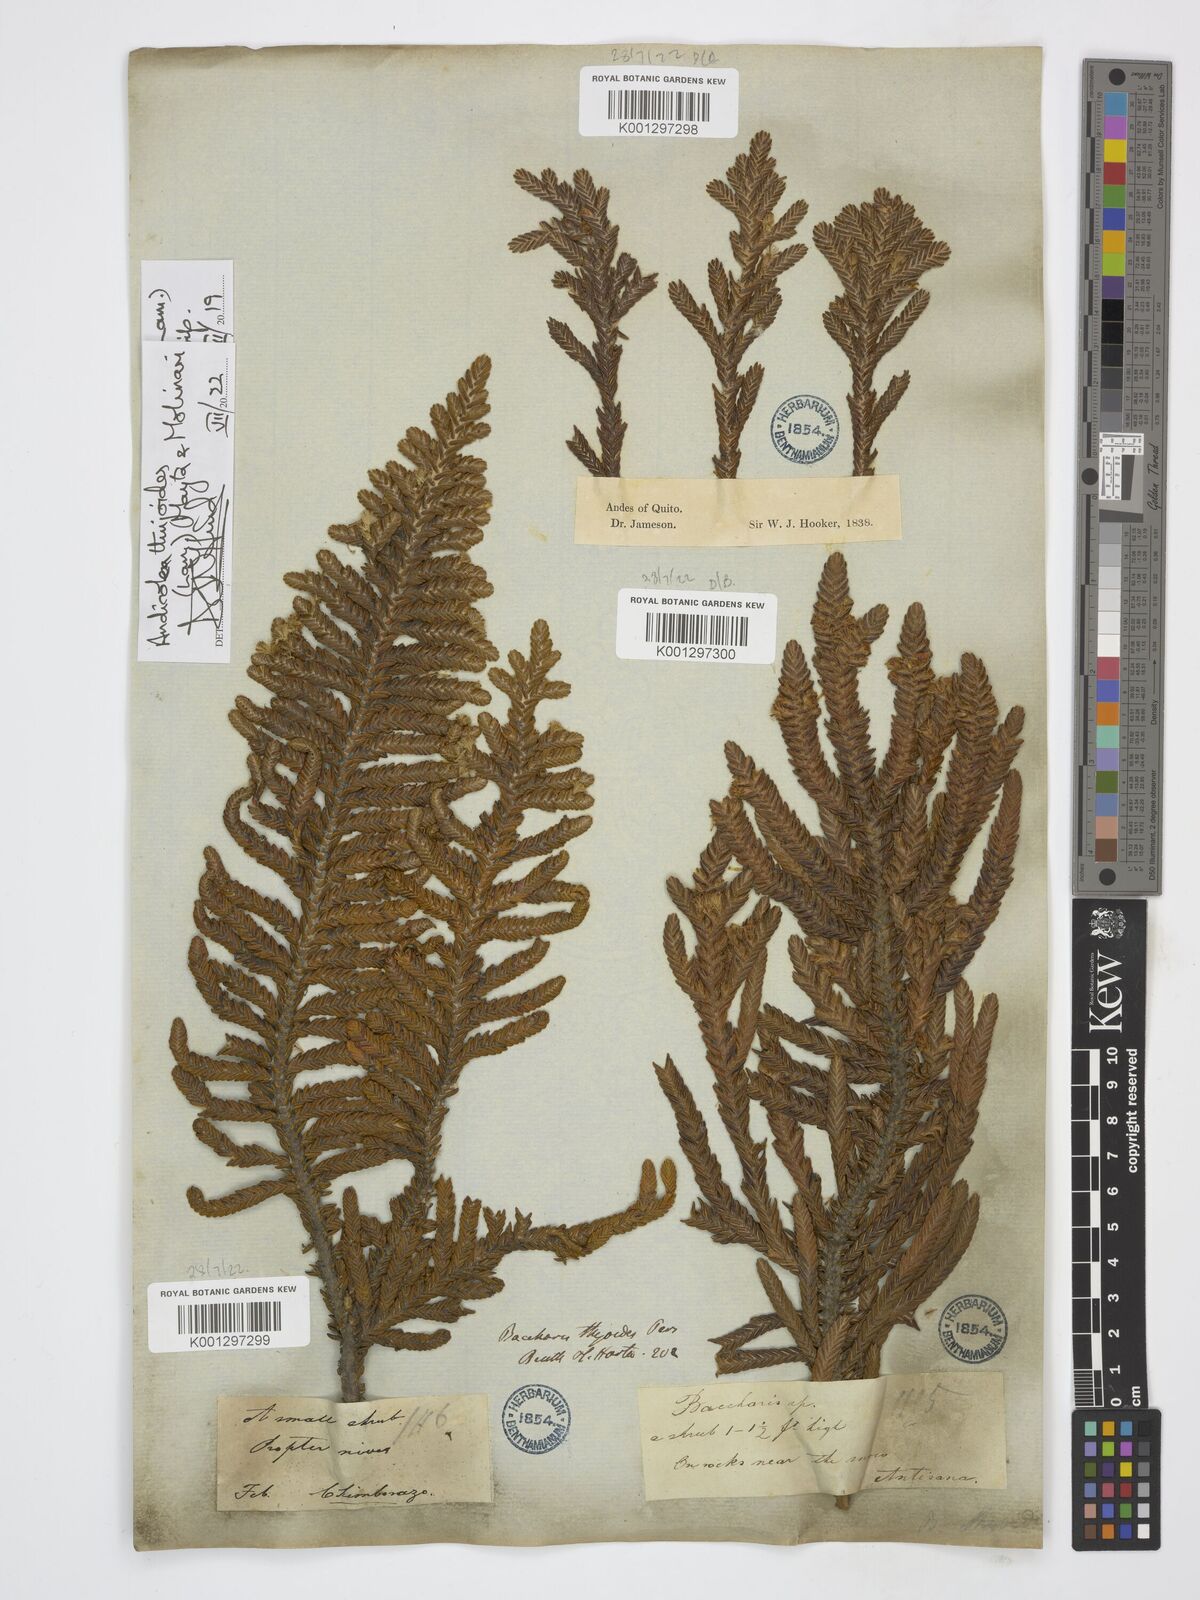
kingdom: Plantae
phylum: Tracheophyta
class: Magnoliopsida
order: Asterales
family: Asteraceae
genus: Andicolea
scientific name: Andicolea thuyoides
